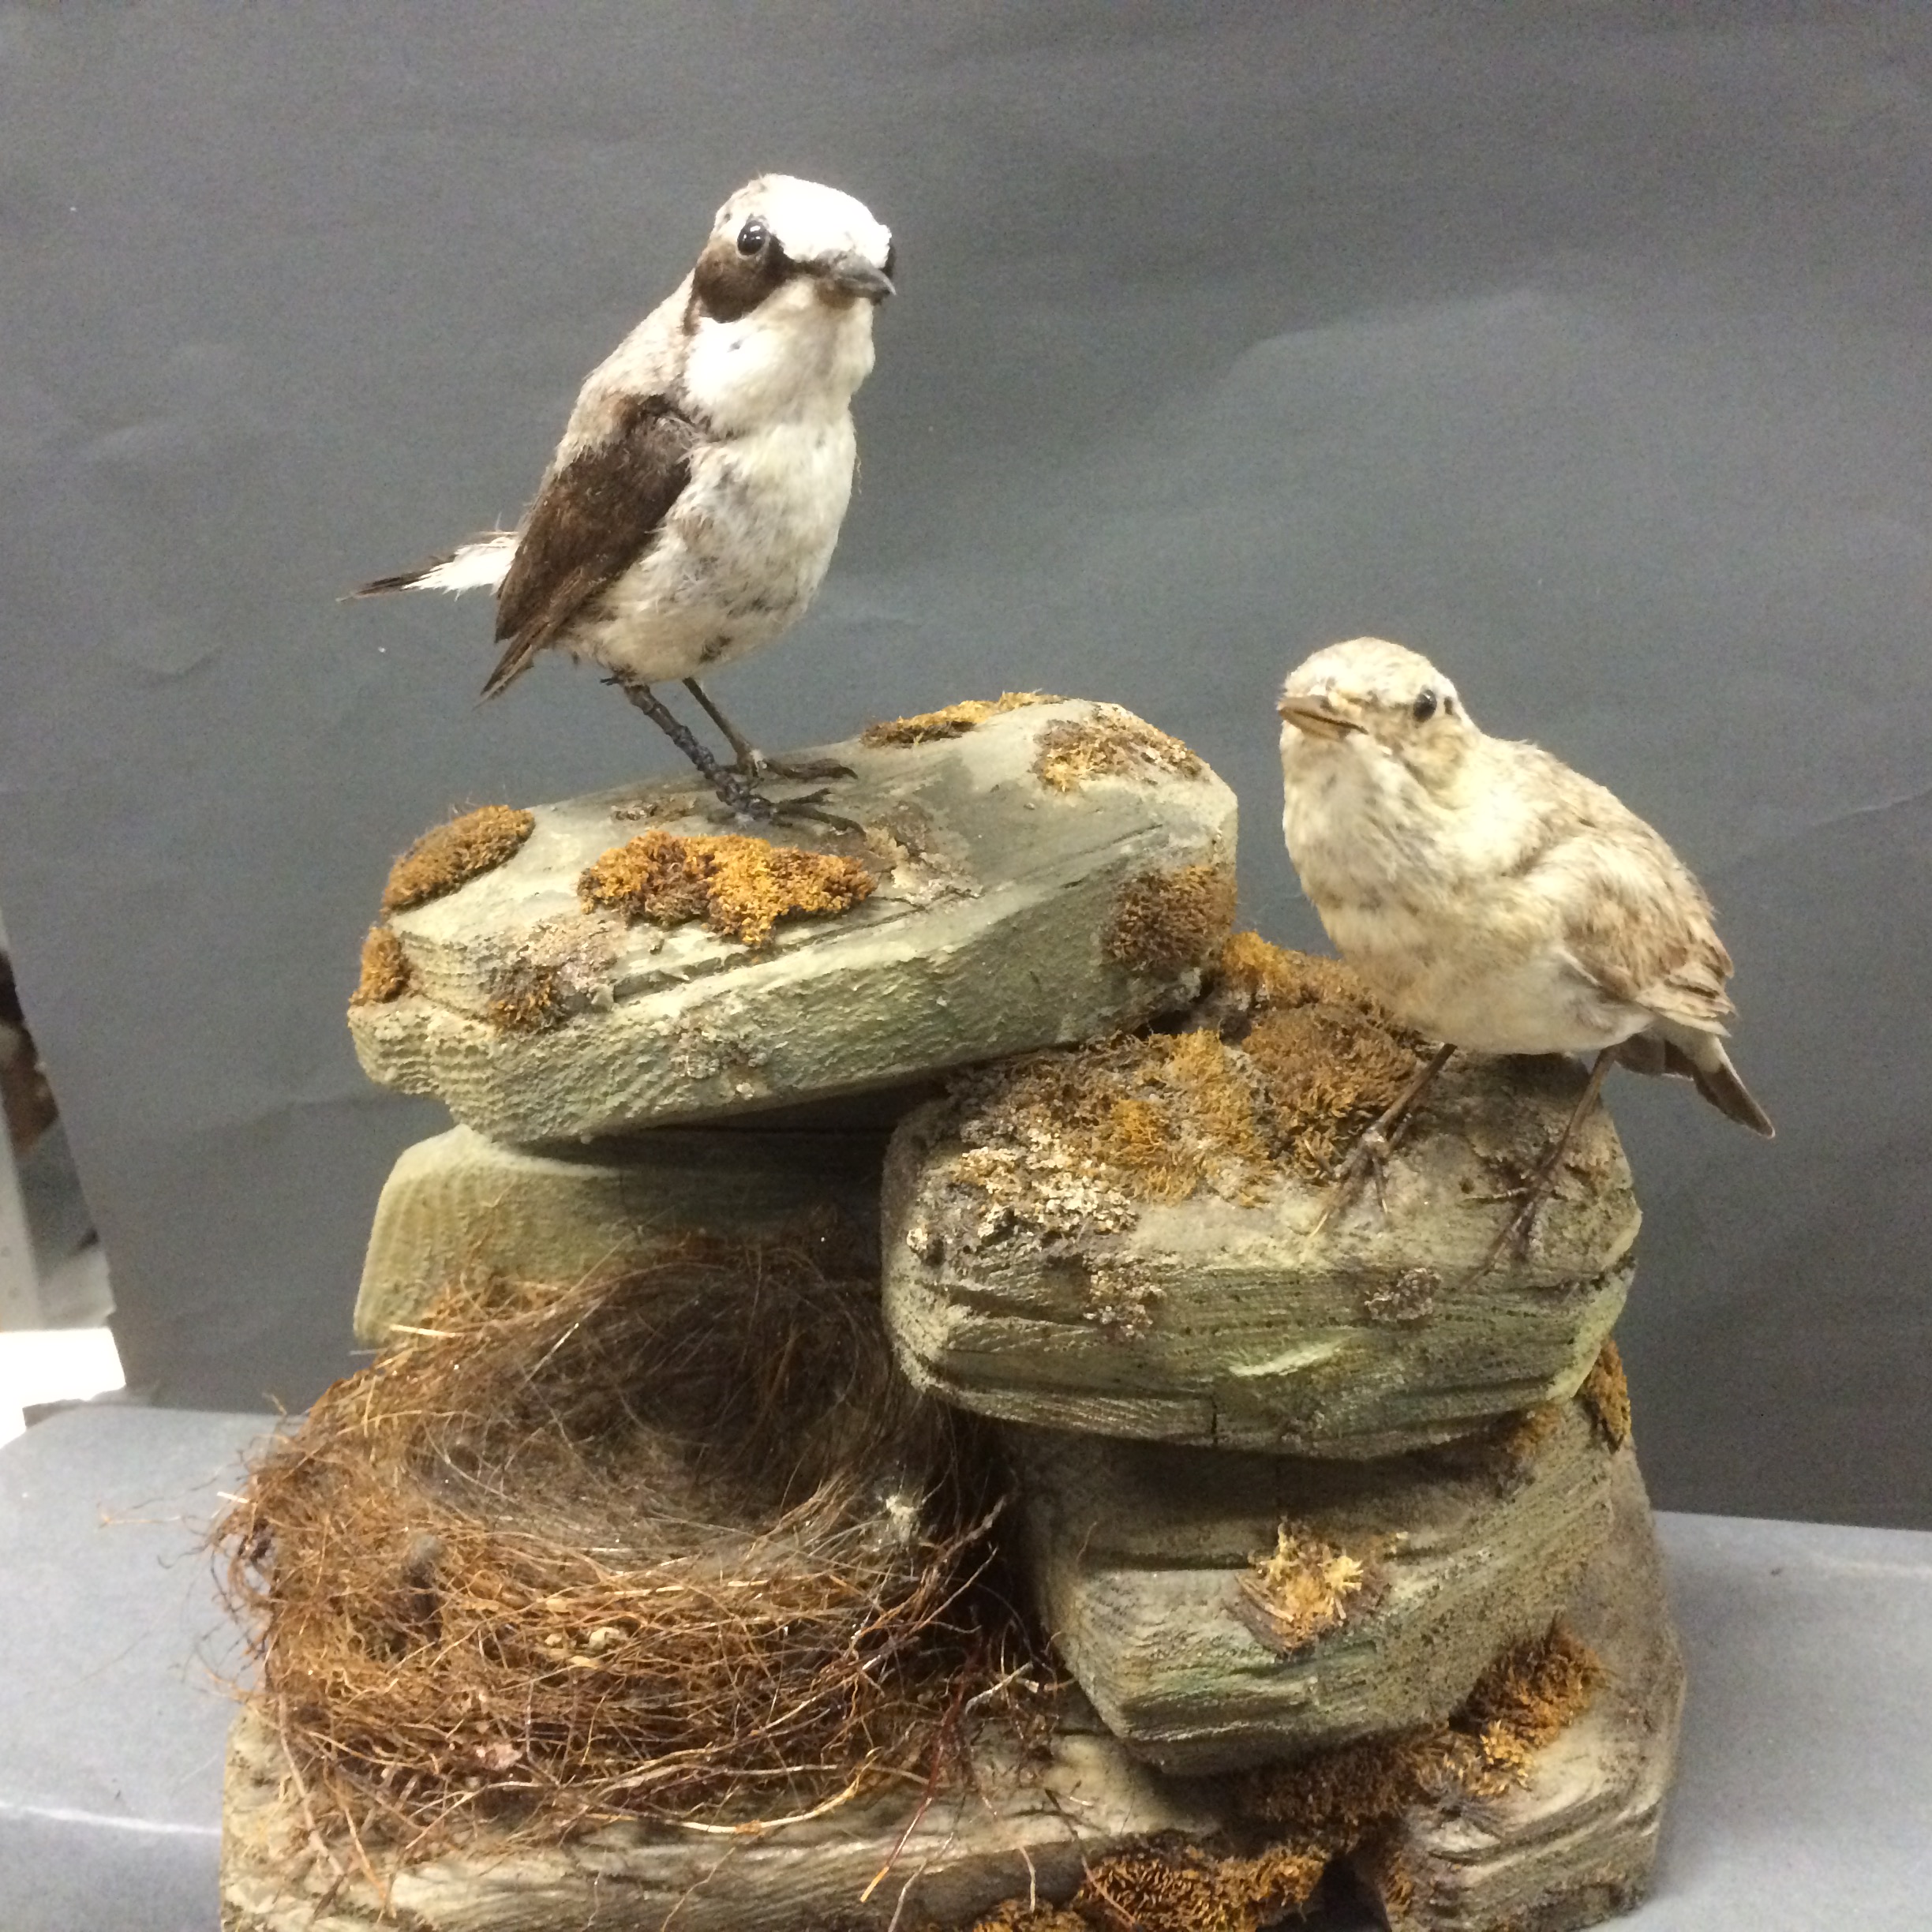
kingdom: Animalia
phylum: Chordata
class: Aves
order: Passeriformes
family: Muscicapidae
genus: Oenanthe
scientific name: Oenanthe oenanthe
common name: Northern wheatear
